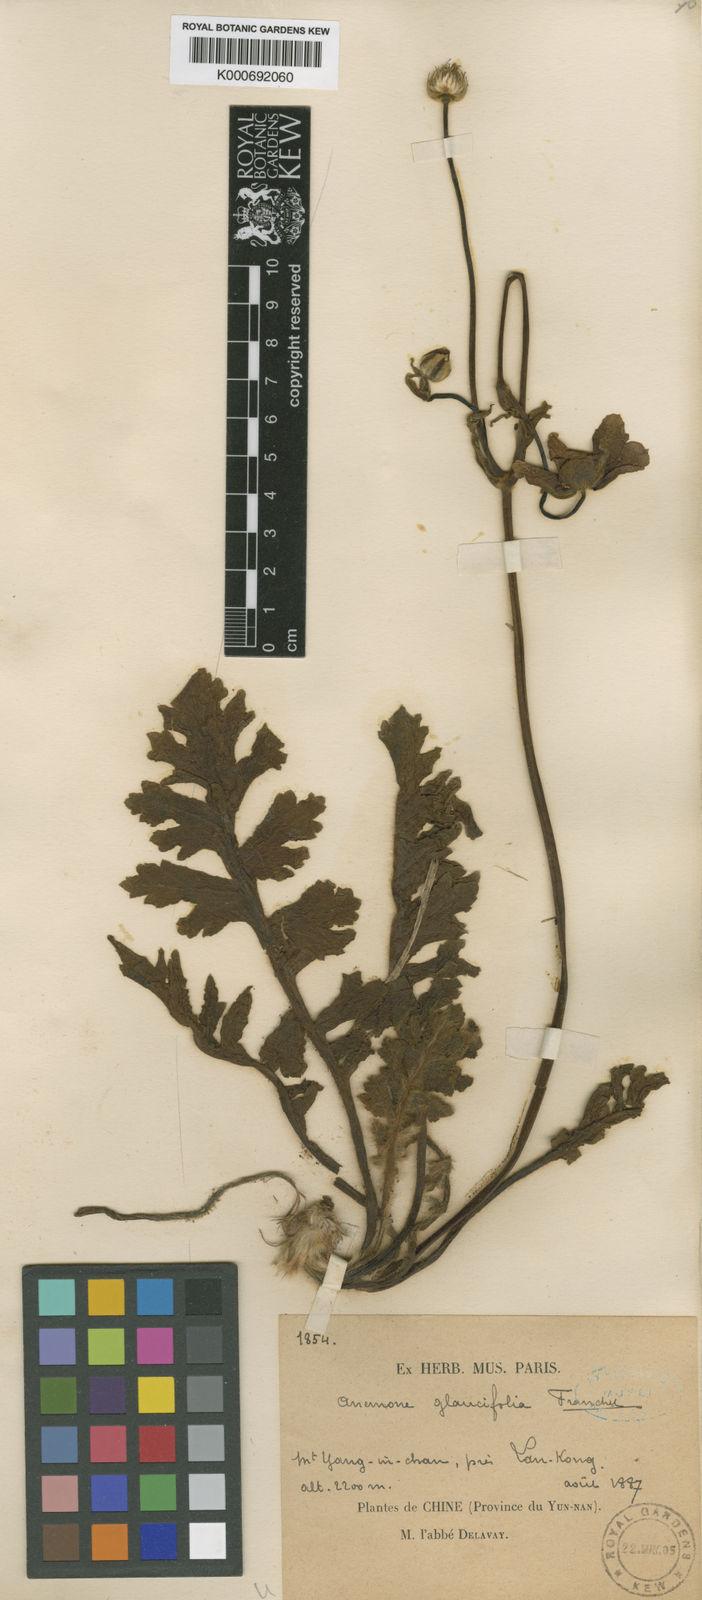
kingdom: Plantae
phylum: Tracheophyta
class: Magnoliopsida
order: Ranunculales
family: Ranunculaceae
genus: Anemone
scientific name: Anemone glaucifolia
